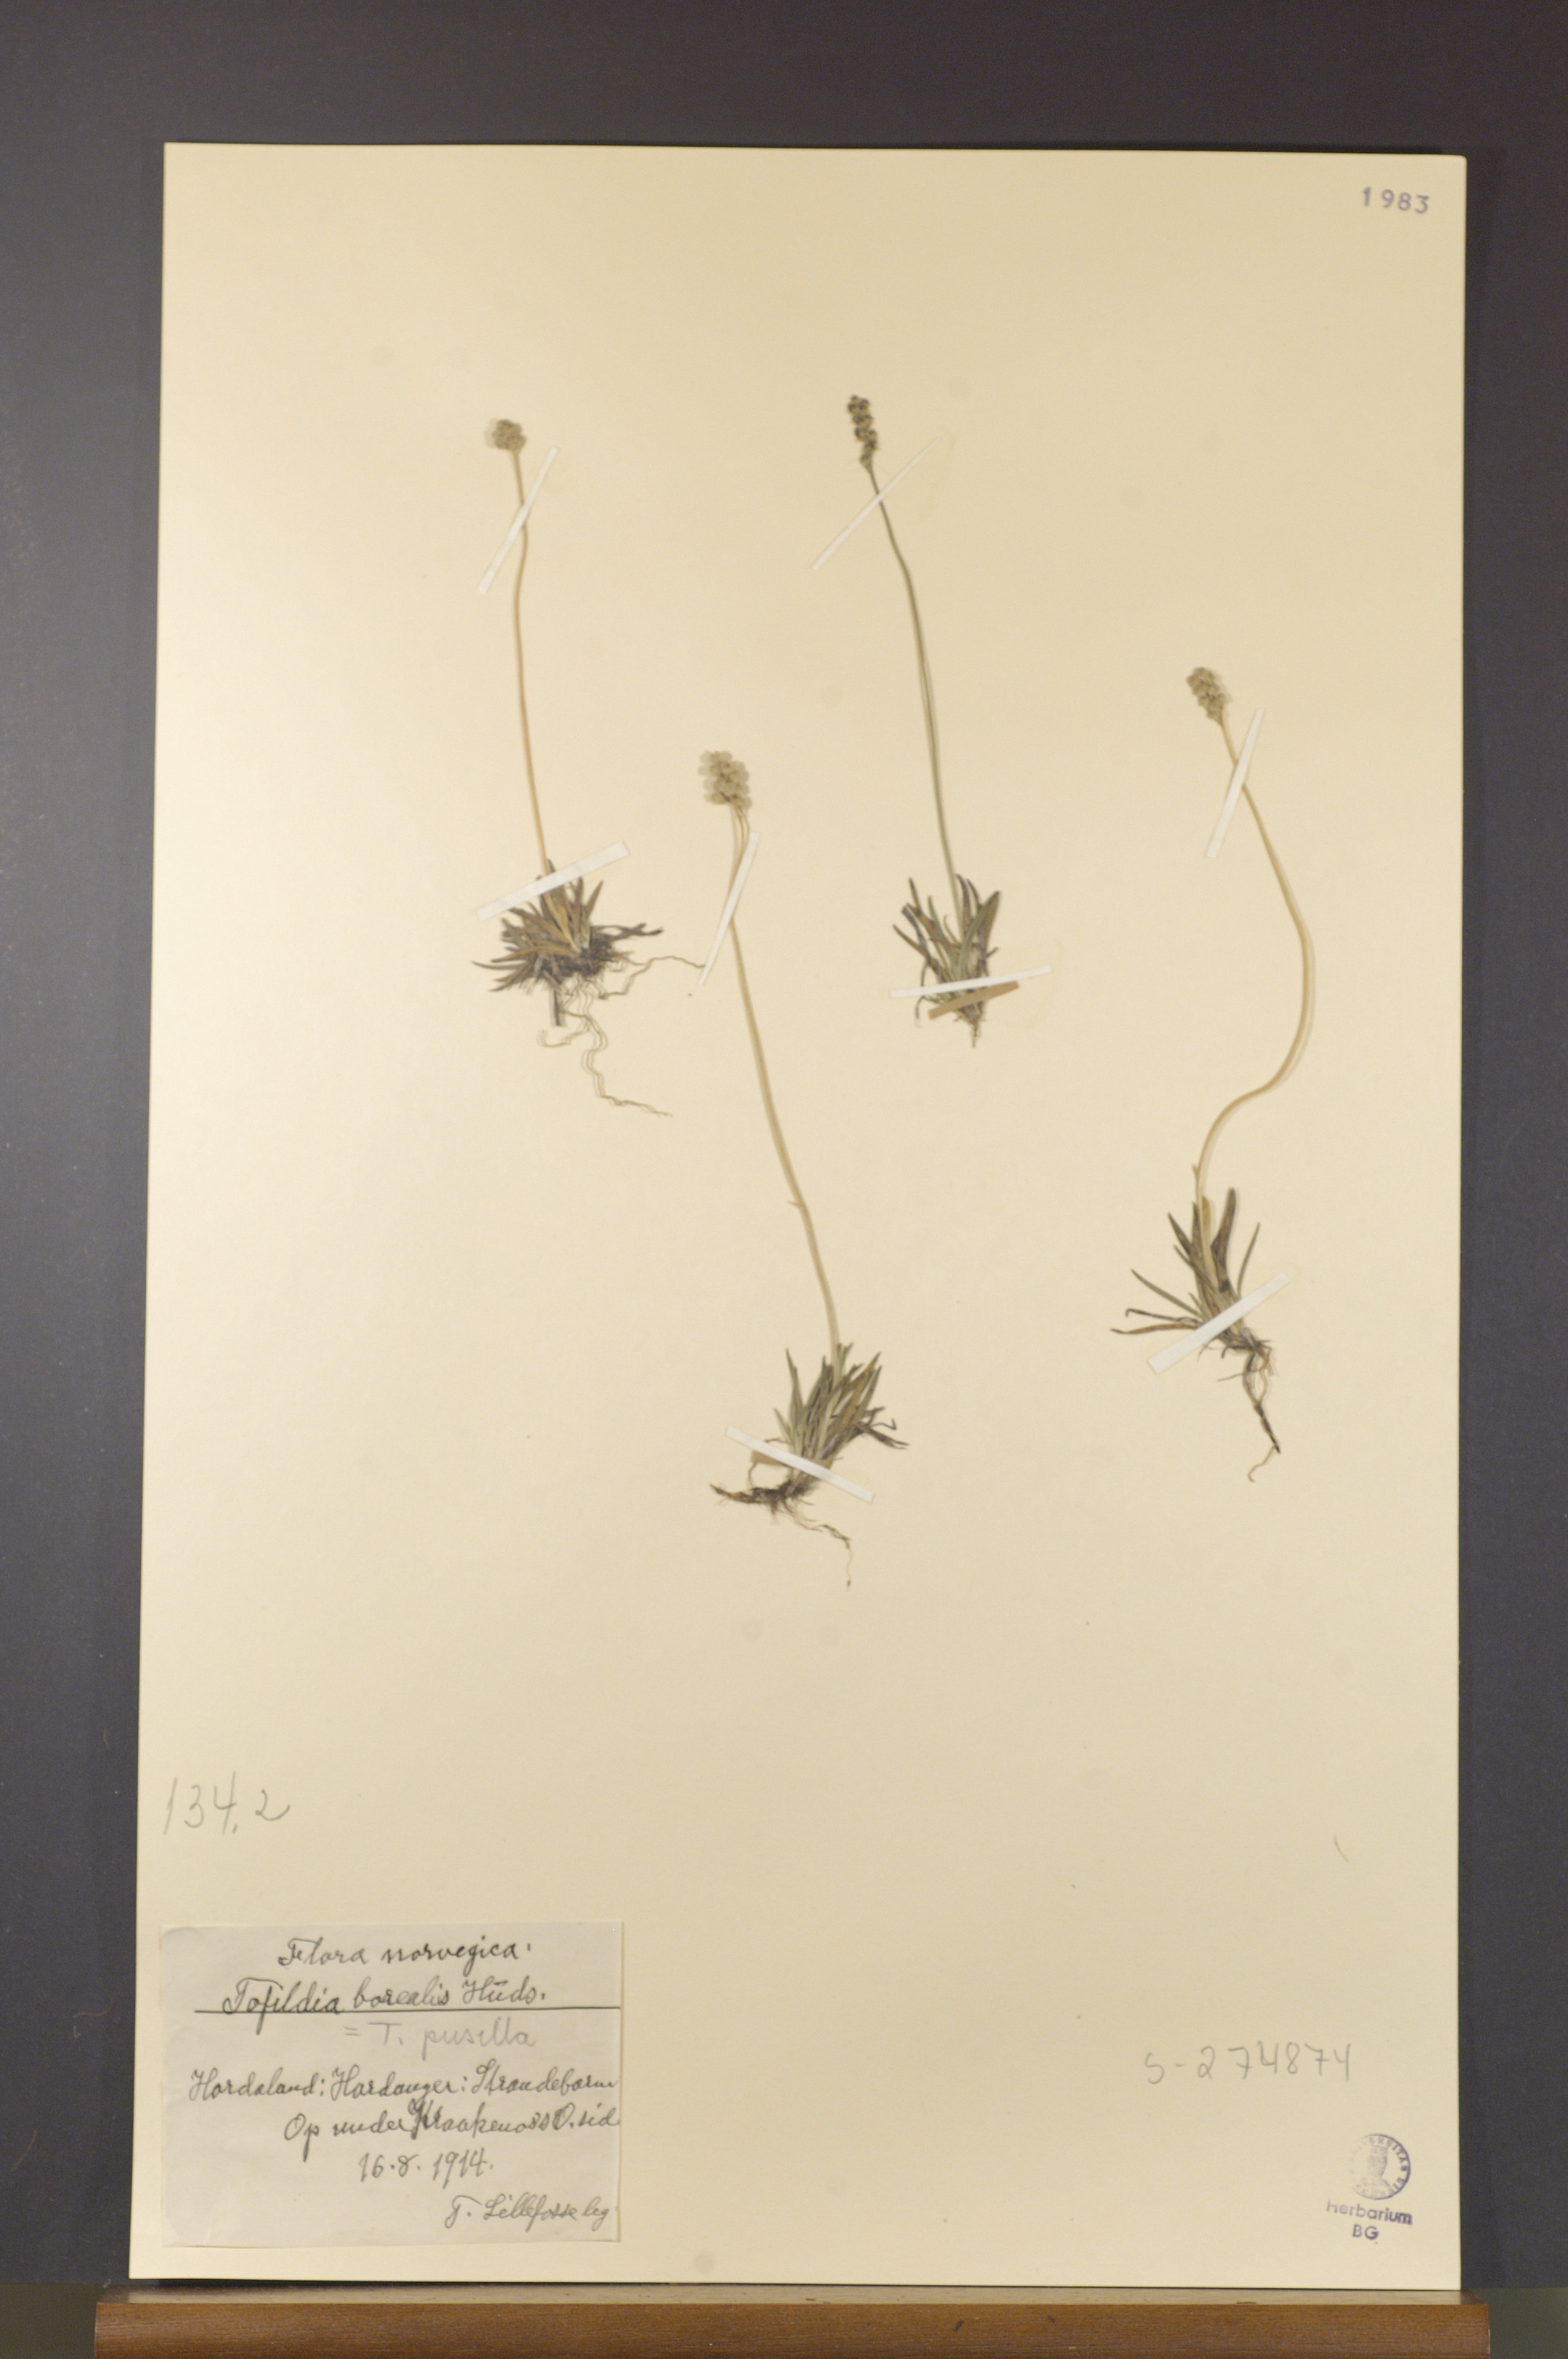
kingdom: Plantae
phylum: Tracheophyta
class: Liliopsida
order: Alismatales
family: Tofieldiaceae
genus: Tofieldia
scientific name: Tofieldia pusilla
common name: Scottish false asphodel
